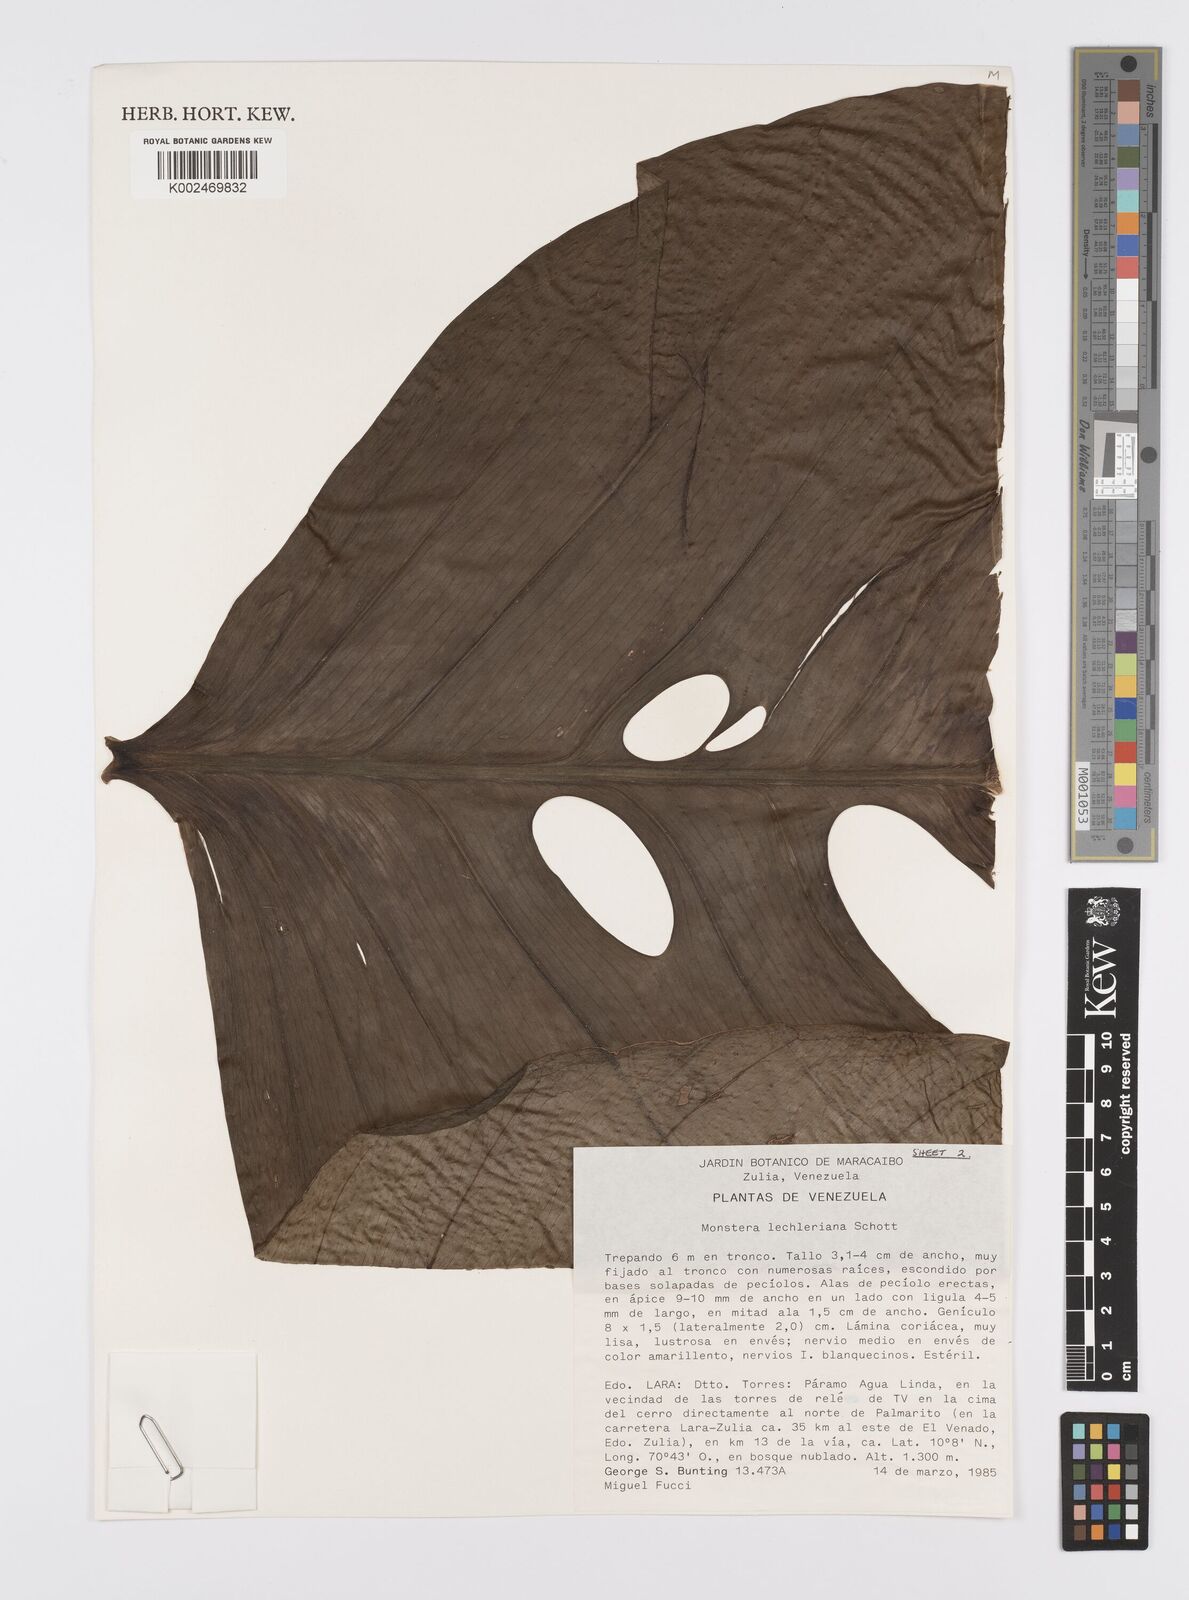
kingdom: Plantae
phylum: Tracheophyta
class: Liliopsida
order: Alismatales
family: Araceae
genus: Monstera
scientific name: Monstera lechleriana
